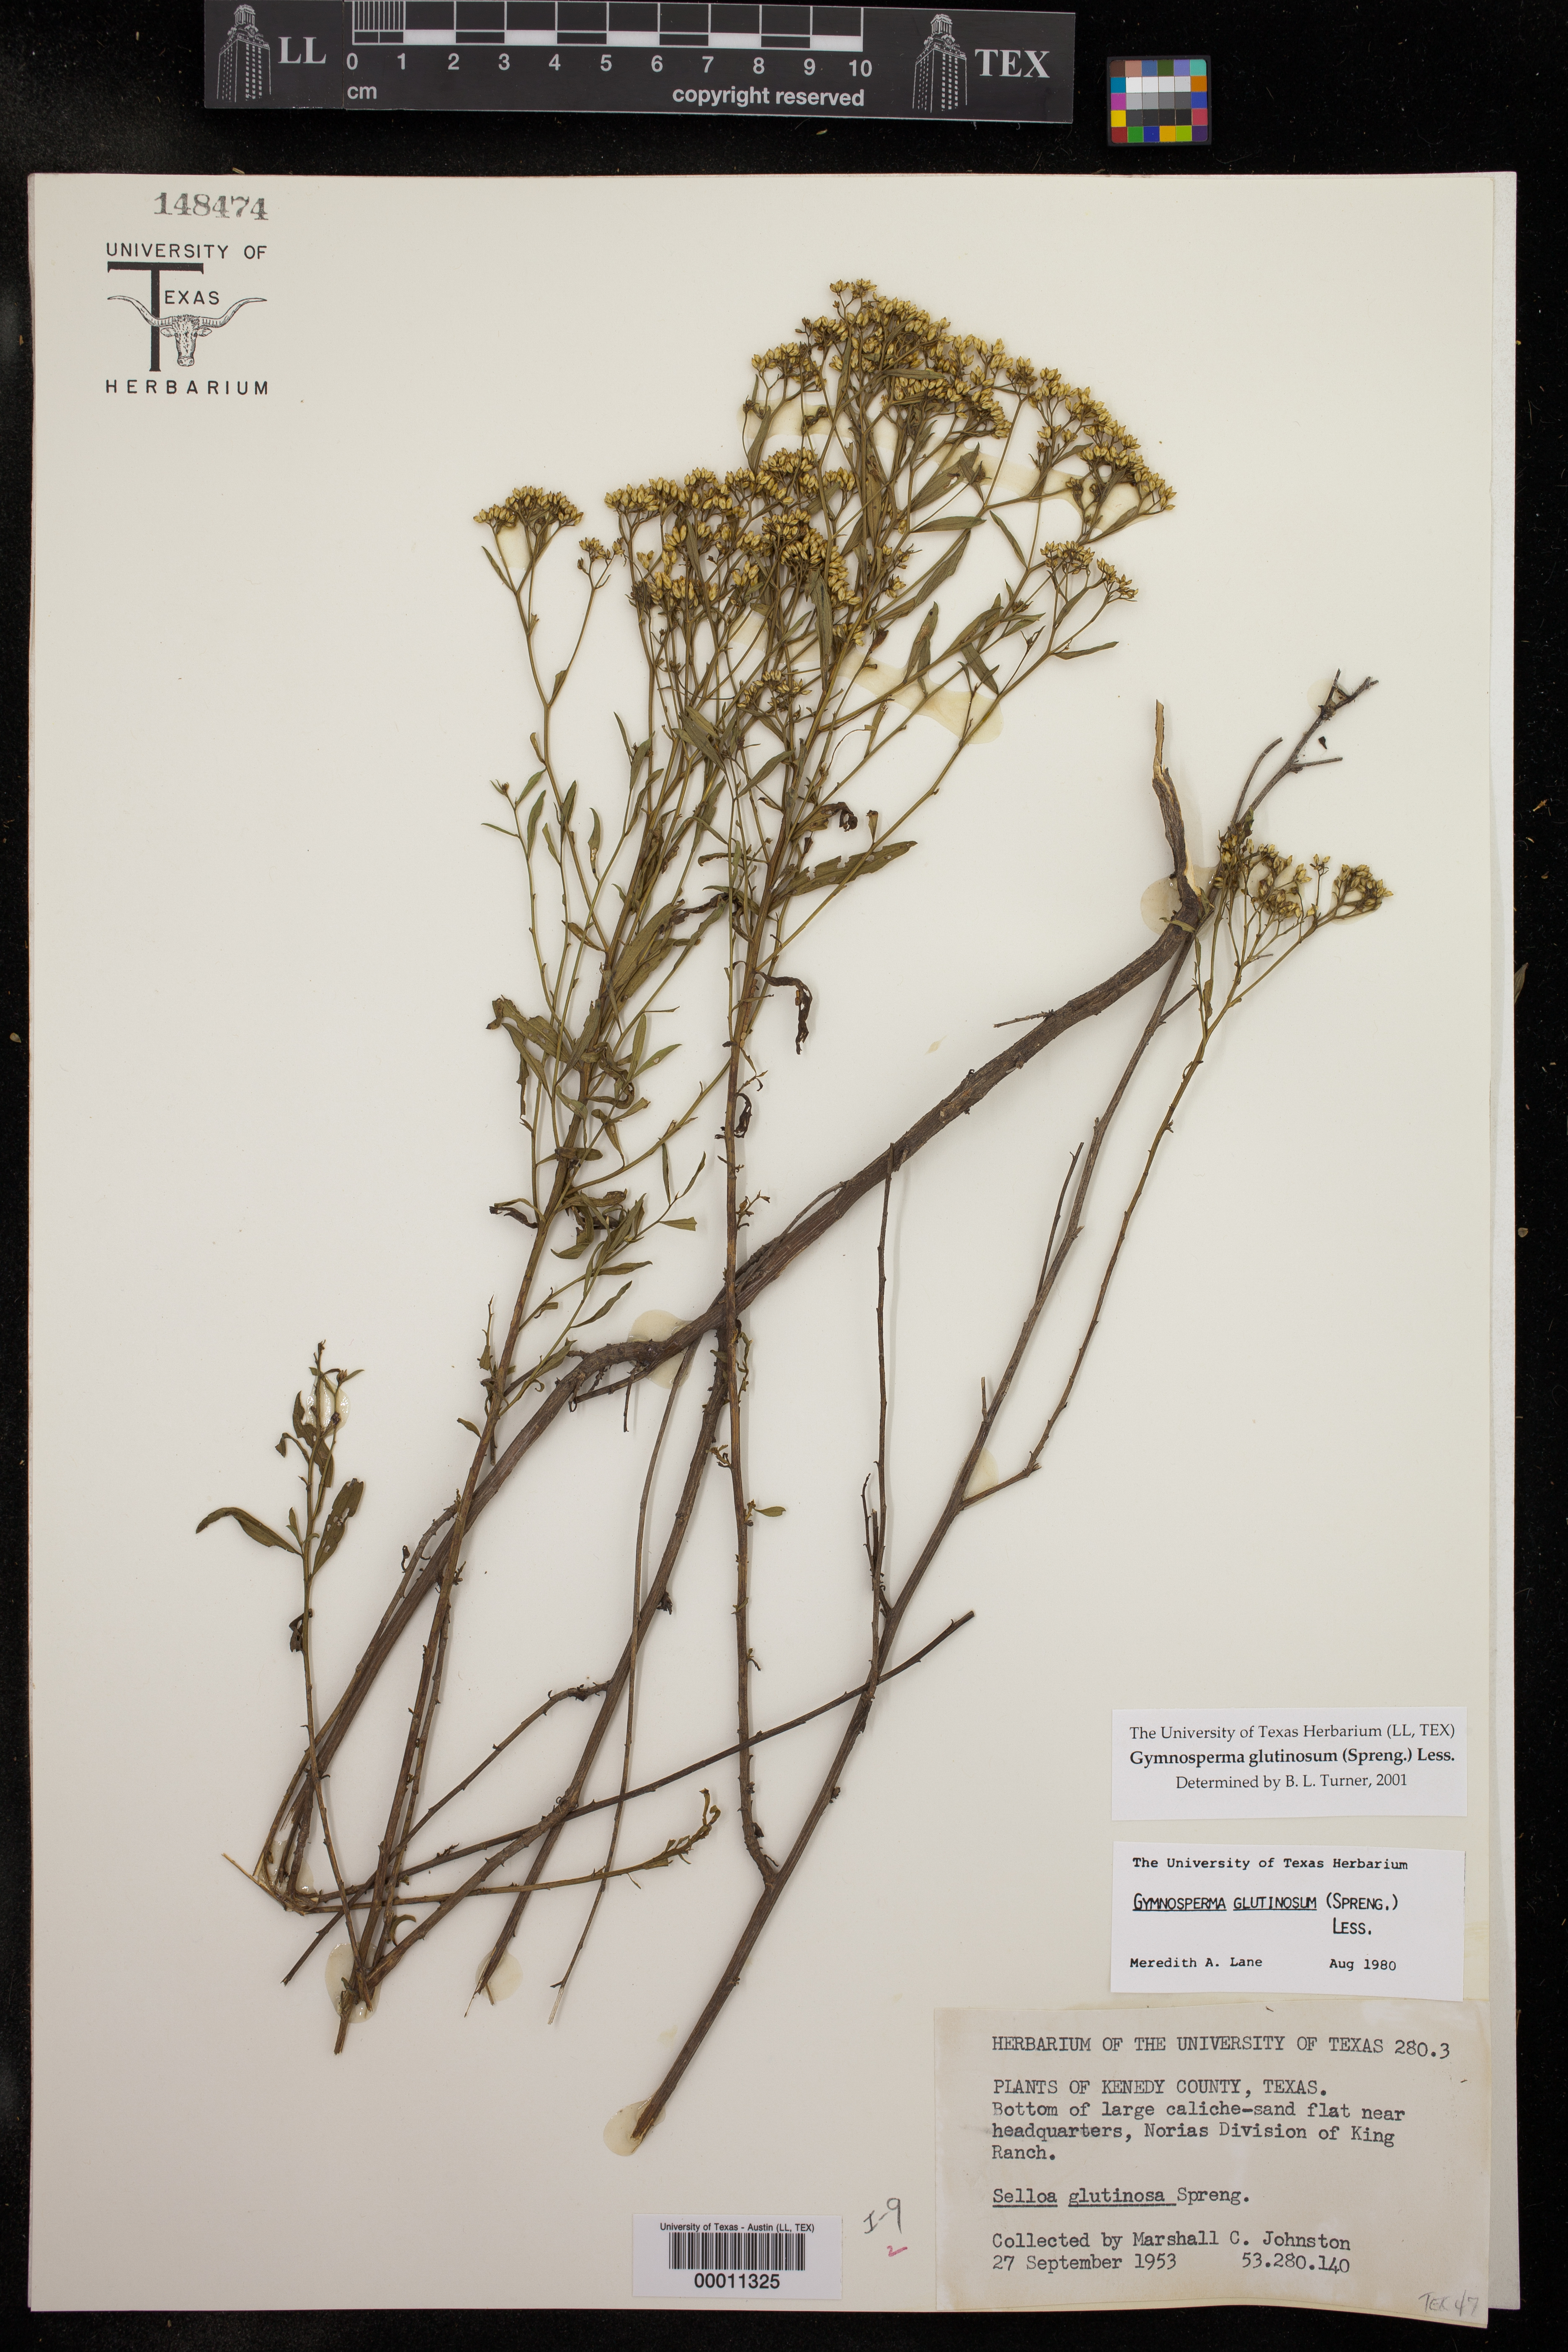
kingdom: Plantae
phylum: Tracheophyta
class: Magnoliopsida
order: Asterales
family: Asteraceae
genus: Gymnosperma
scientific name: Gymnosperma glutinosum
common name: Gumhead
